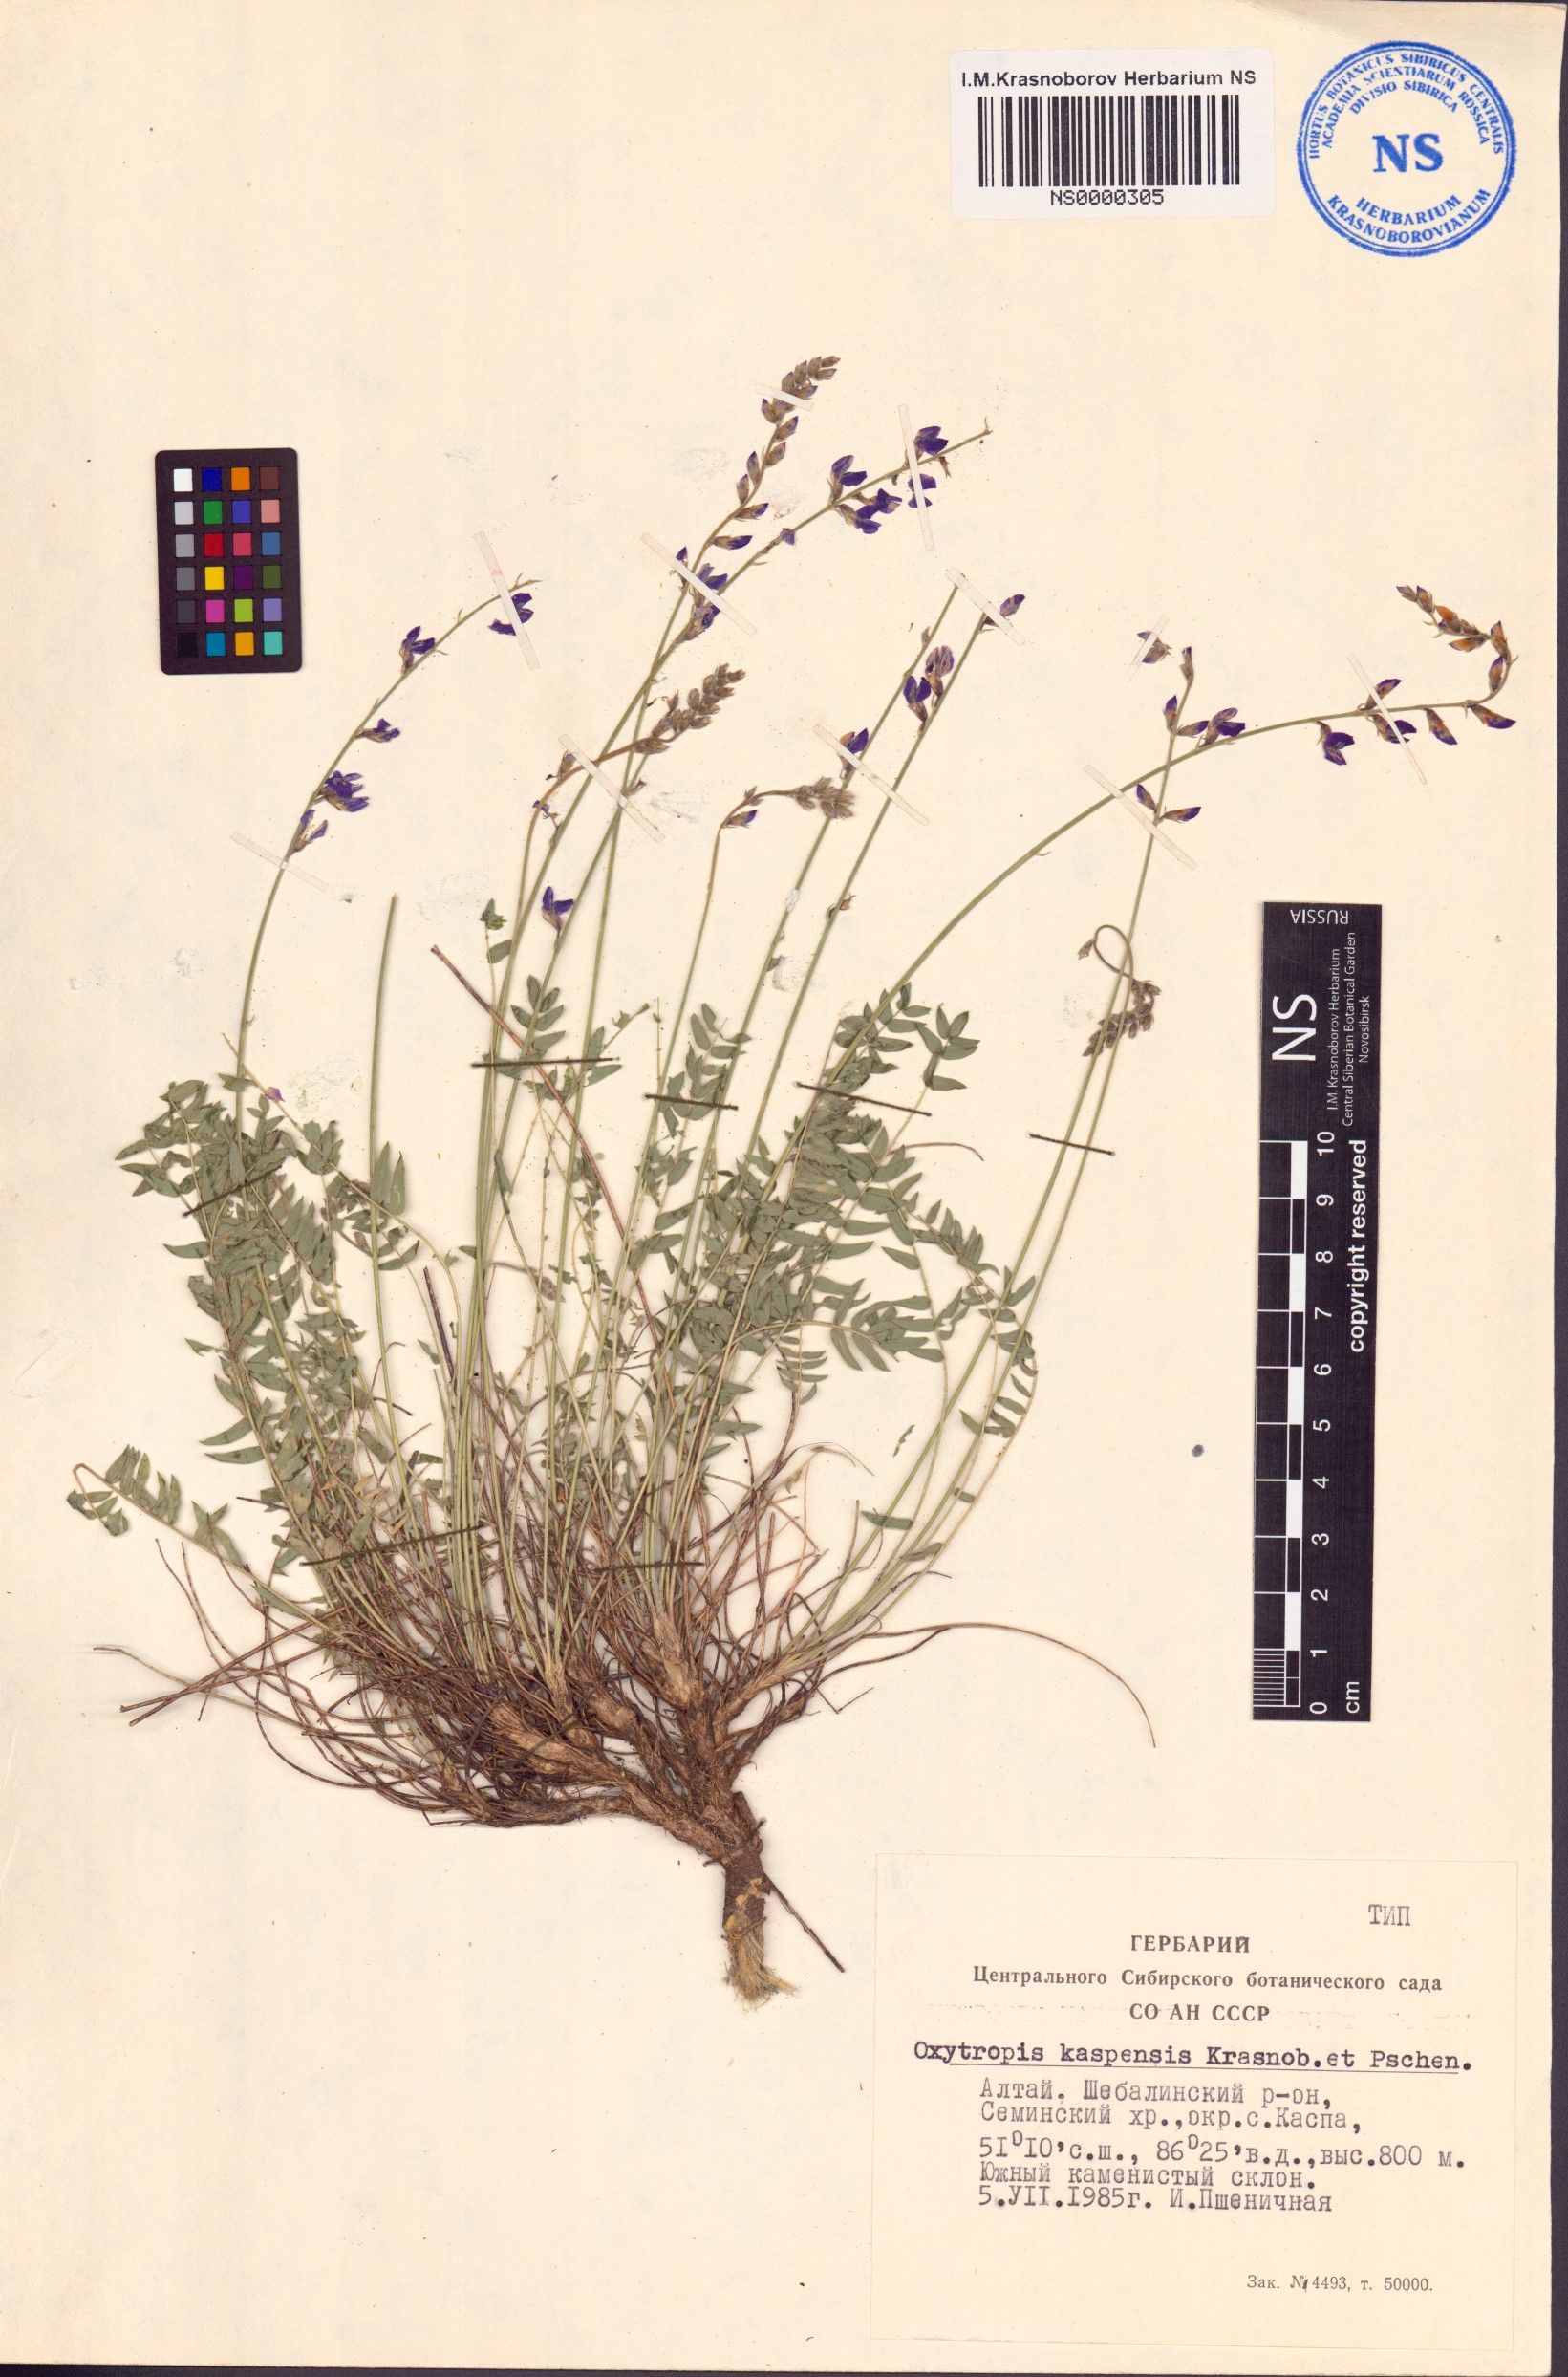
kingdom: Plantae
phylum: Tracheophyta
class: Magnoliopsida
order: Fabales
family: Fabaceae
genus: Oxytropis
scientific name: Oxytropis kaspensis
